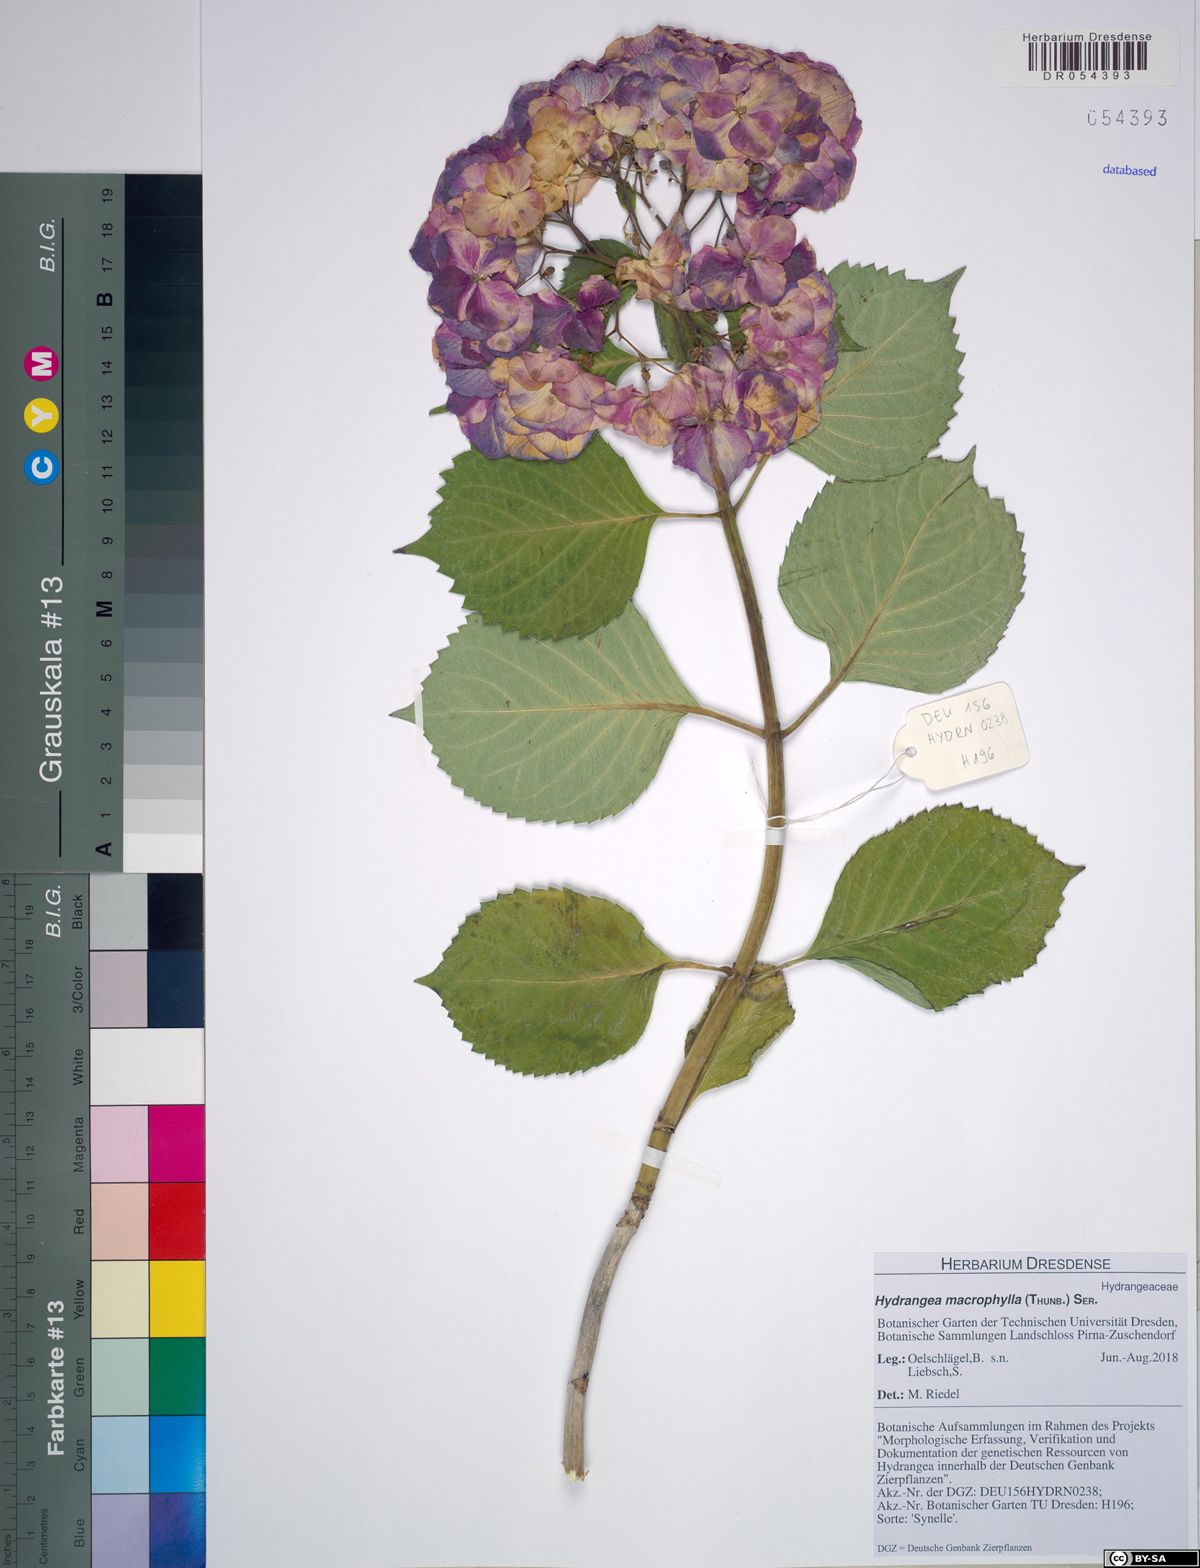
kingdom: Plantae
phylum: Tracheophyta
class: Magnoliopsida
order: Cornales
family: Hydrangeaceae
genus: Hydrangea
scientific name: Hydrangea macrophylla
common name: Hydrangea
